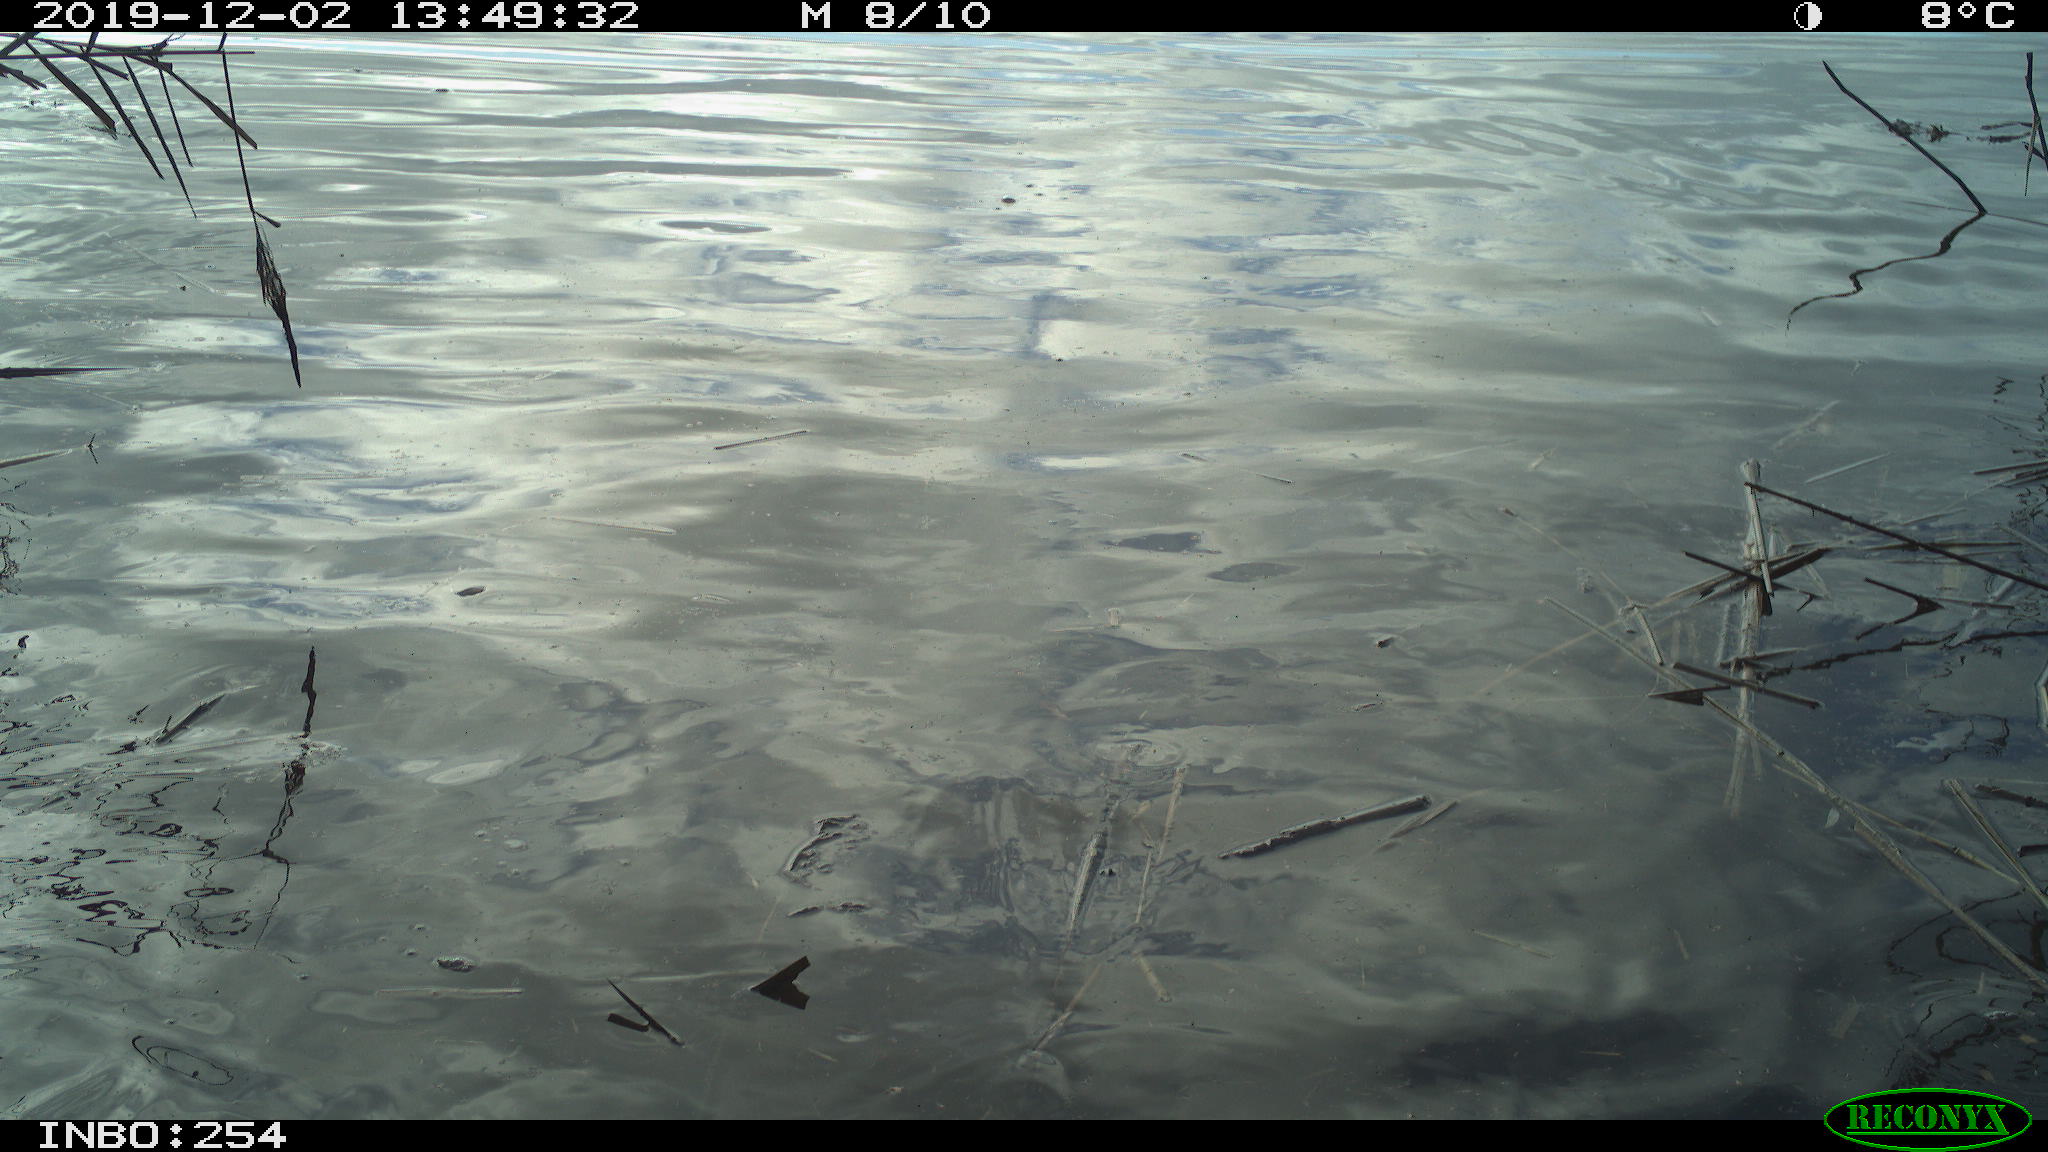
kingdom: Animalia
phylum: Chordata
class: Aves
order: Gruiformes
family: Rallidae
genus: Gallinula
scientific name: Gallinula chloropus
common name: Common moorhen
